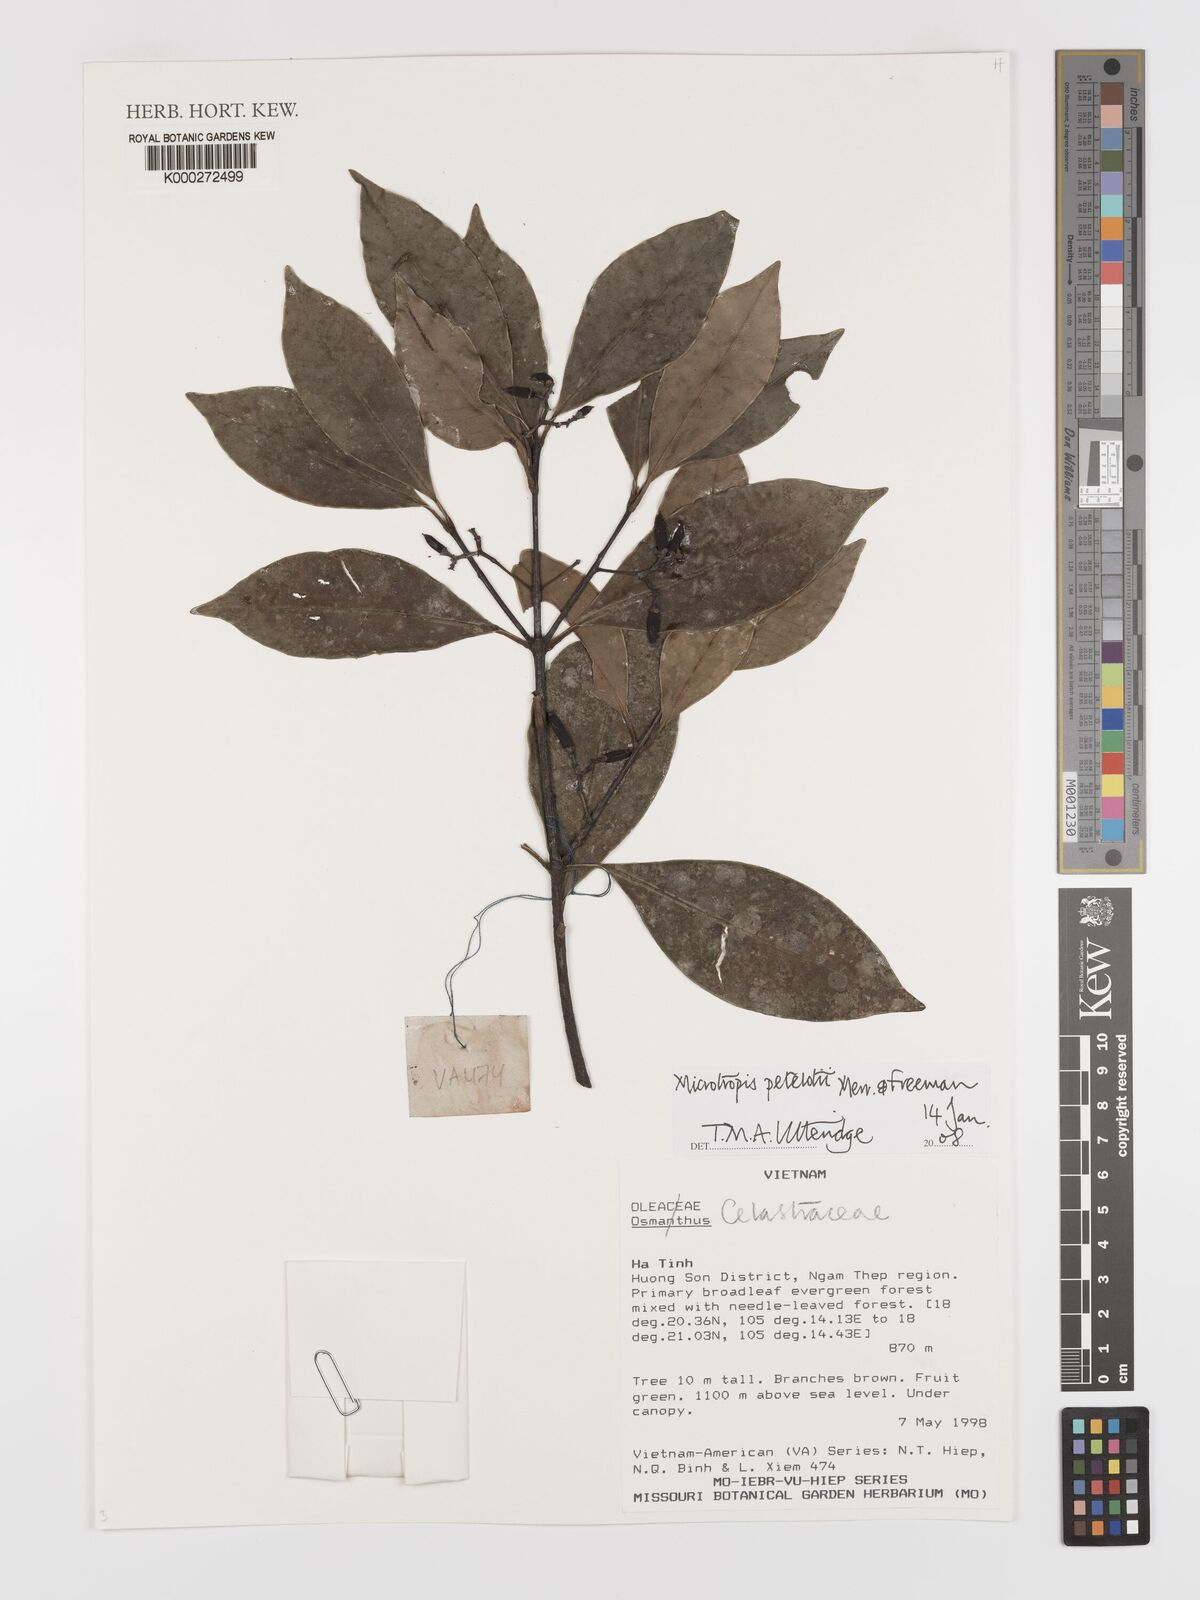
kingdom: Plantae
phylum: Tracheophyta
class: Magnoliopsida
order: Celastrales
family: Celastraceae
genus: Microtropis
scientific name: Microtropis petelotii
